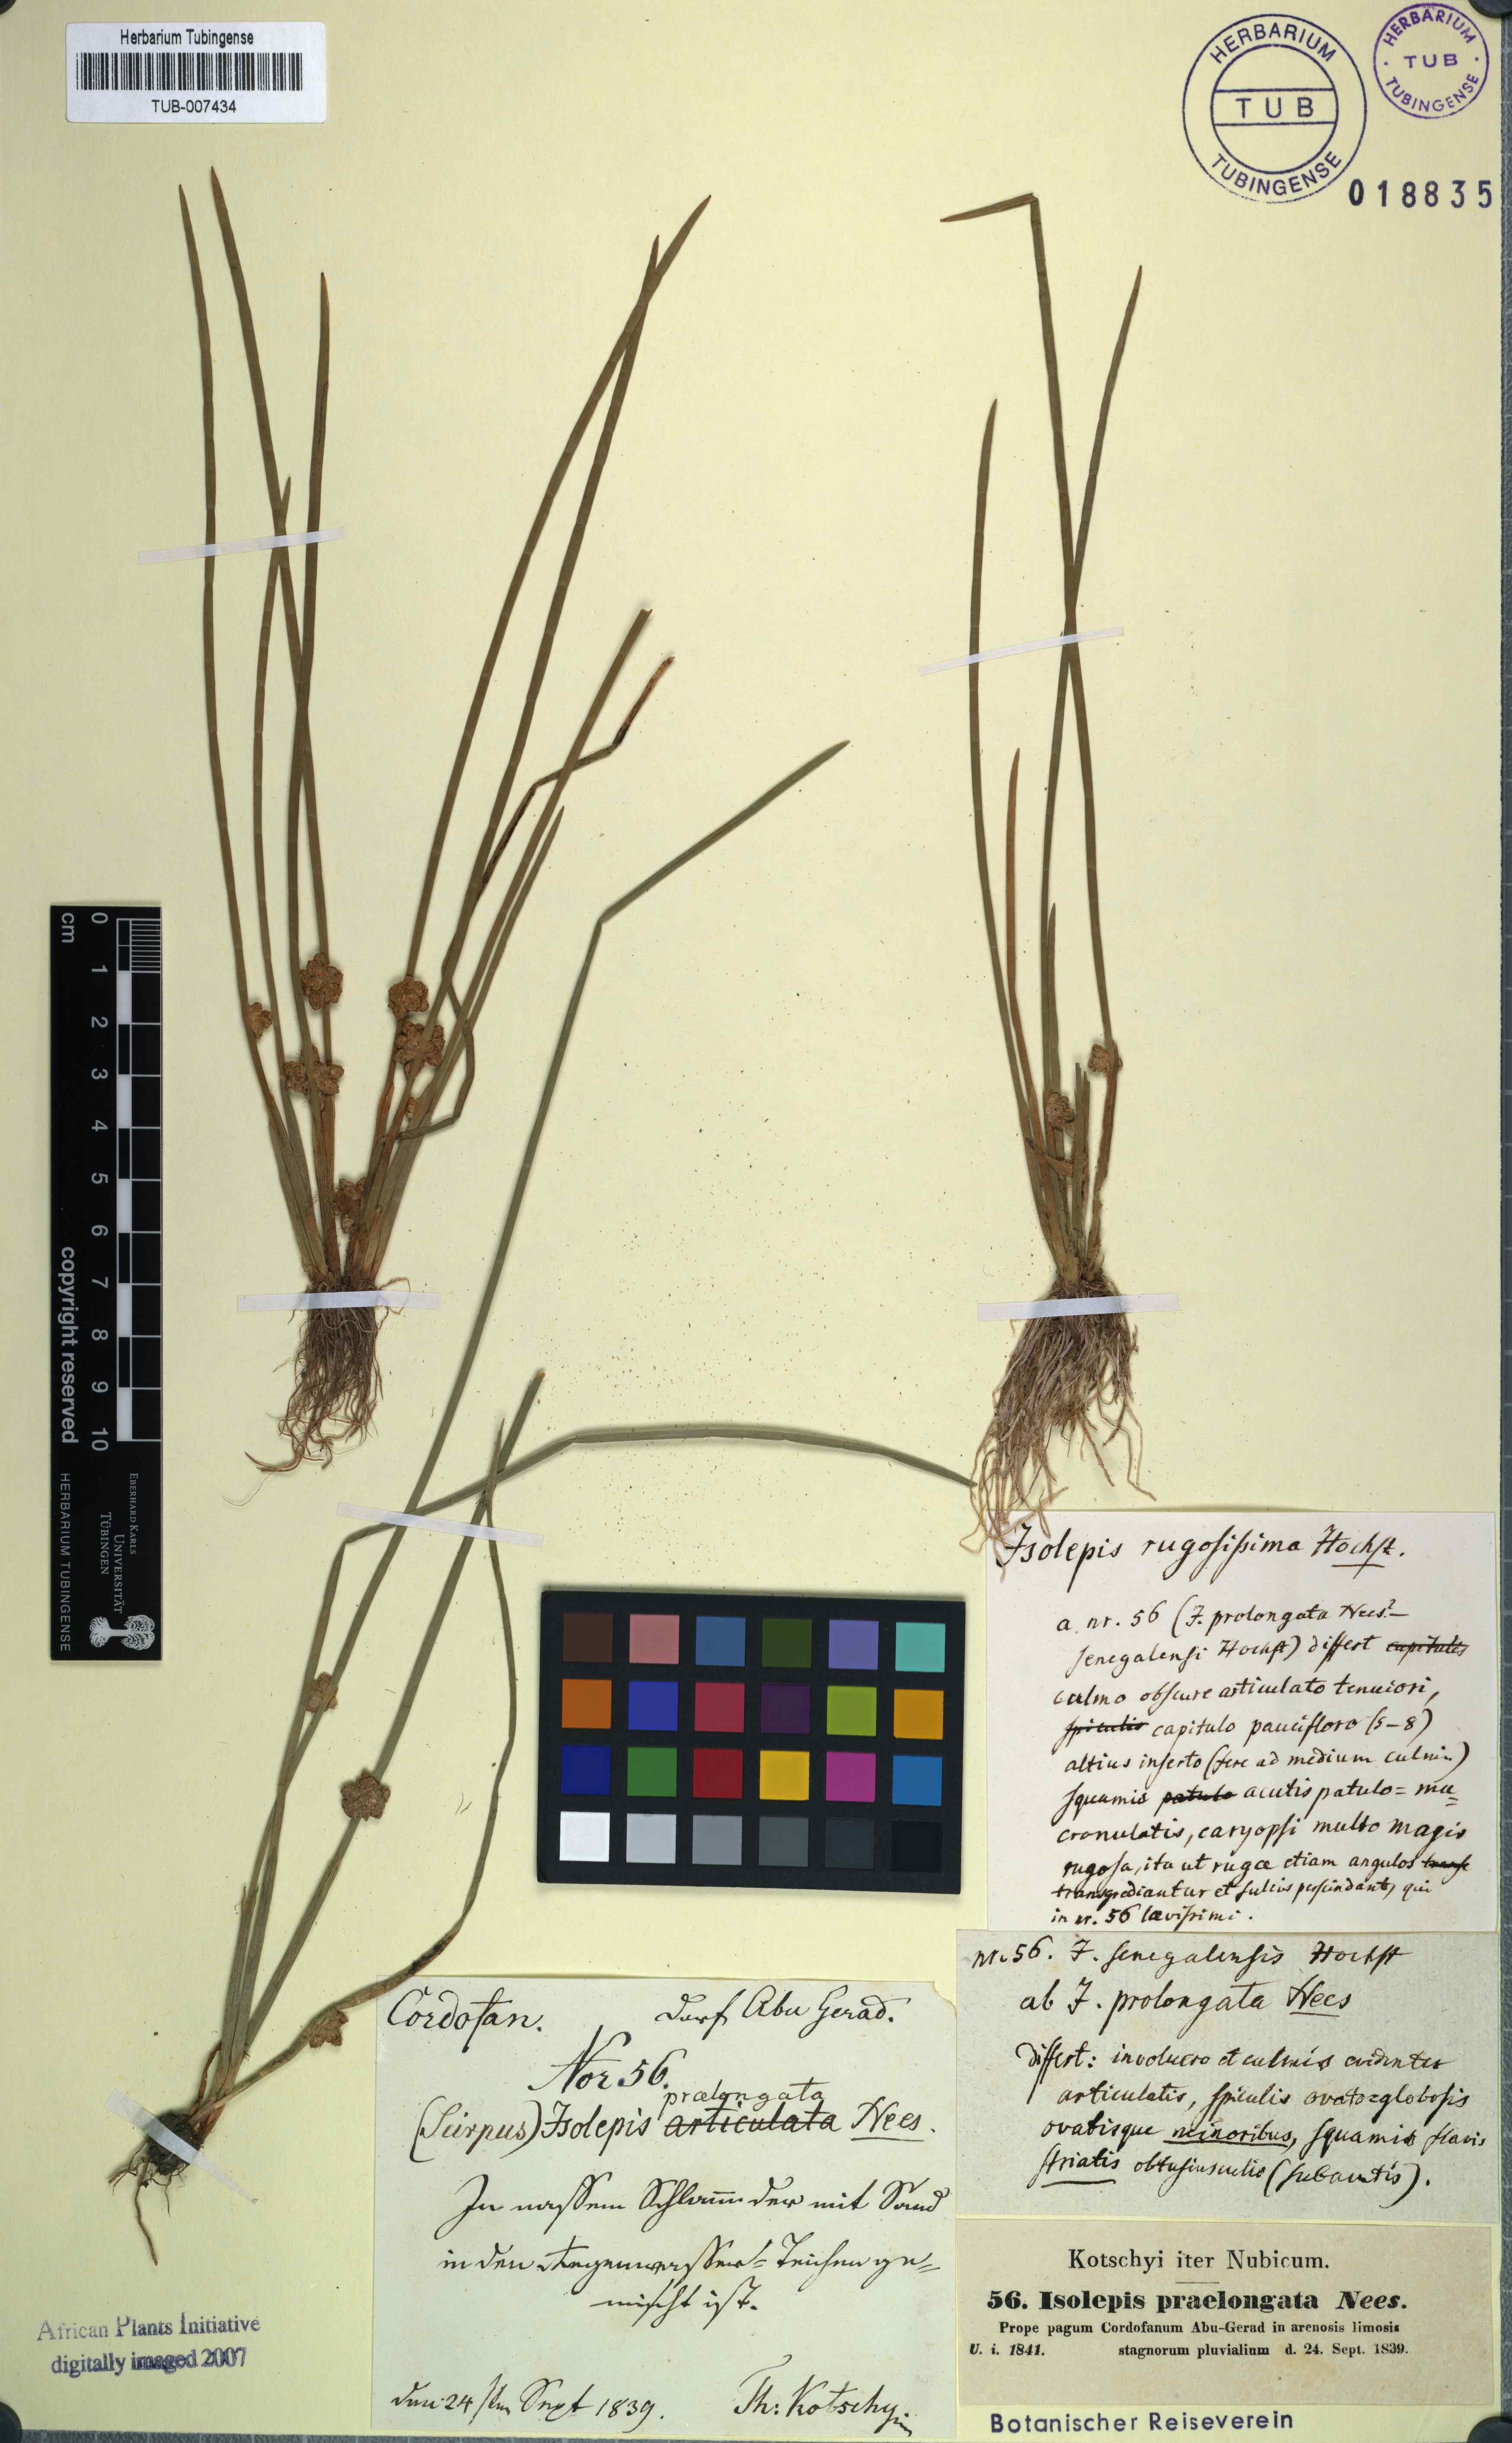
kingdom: Plantae
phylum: Tracheophyta
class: Liliopsida
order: Poales
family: Cyperaceae
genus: Schoenoplectiella
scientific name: Schoenoplectiella articulata
